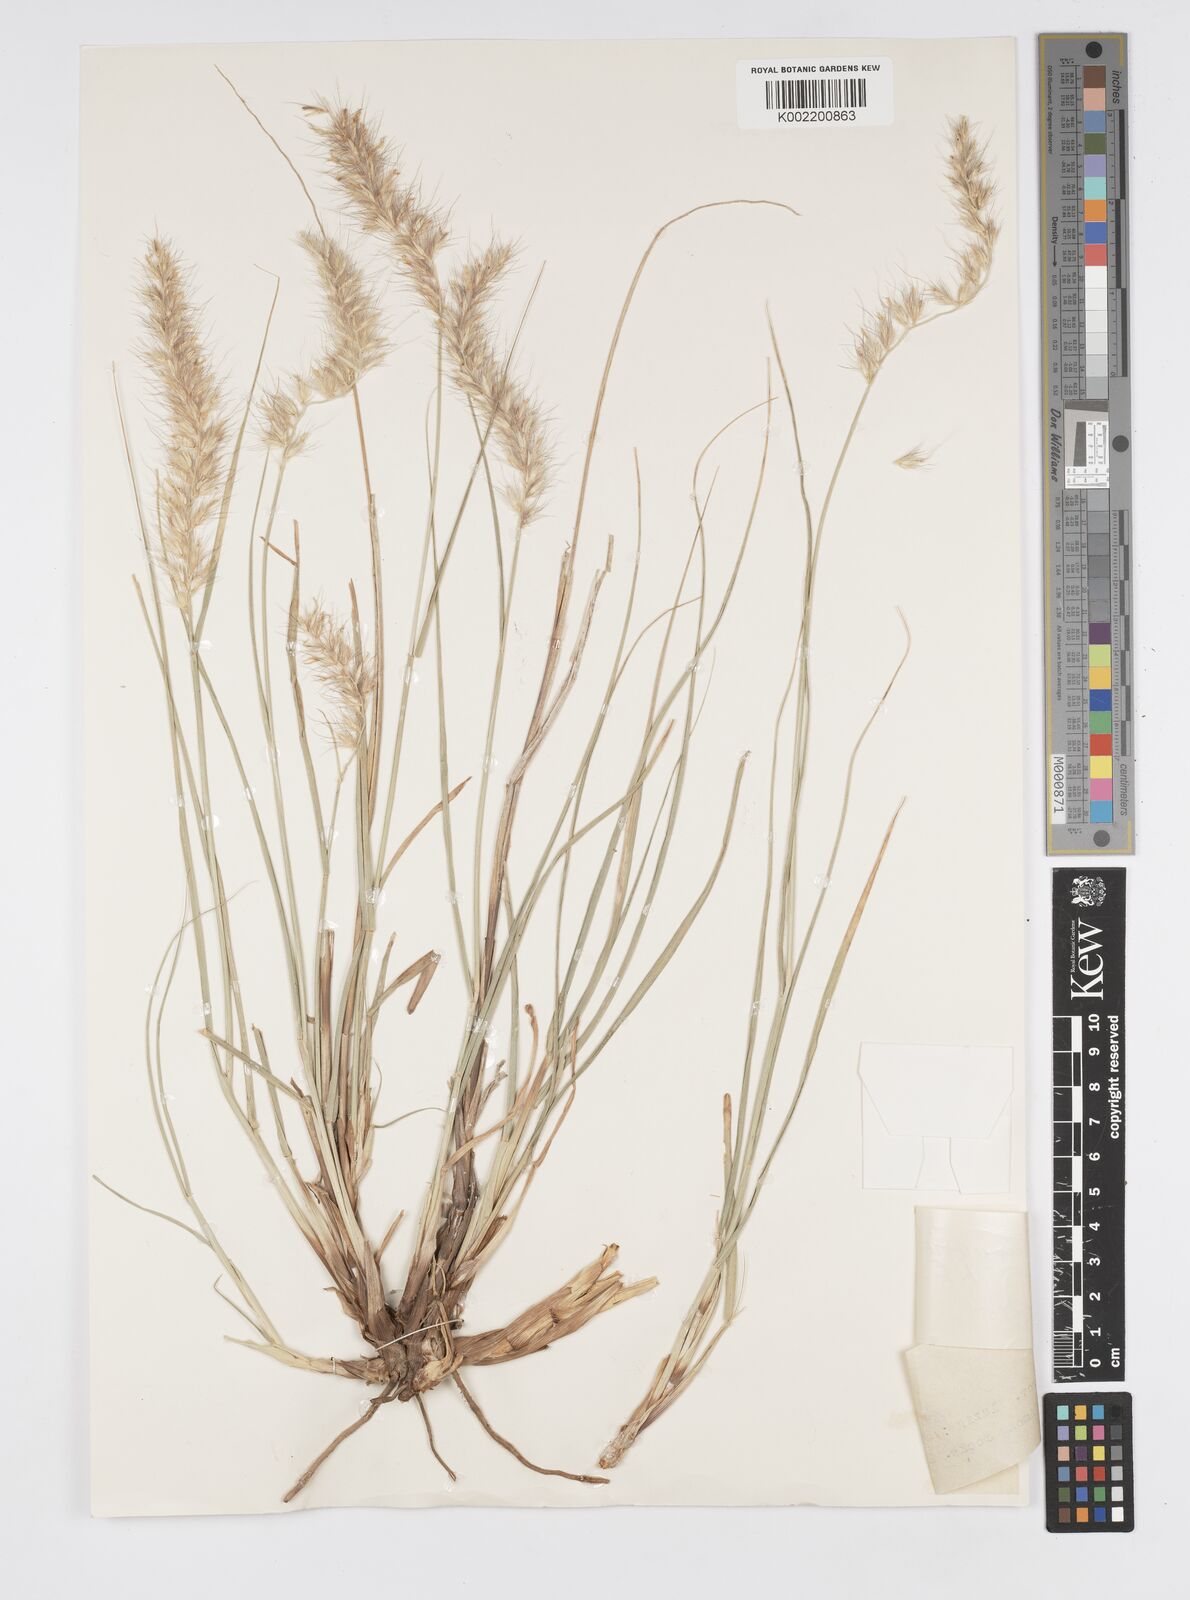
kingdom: Plantae
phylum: Tracheophyta
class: Liliopsida
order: Poales
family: Poaceae
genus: Cenchrus
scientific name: Cenchrus orientalis
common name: Oriental fountain grass
